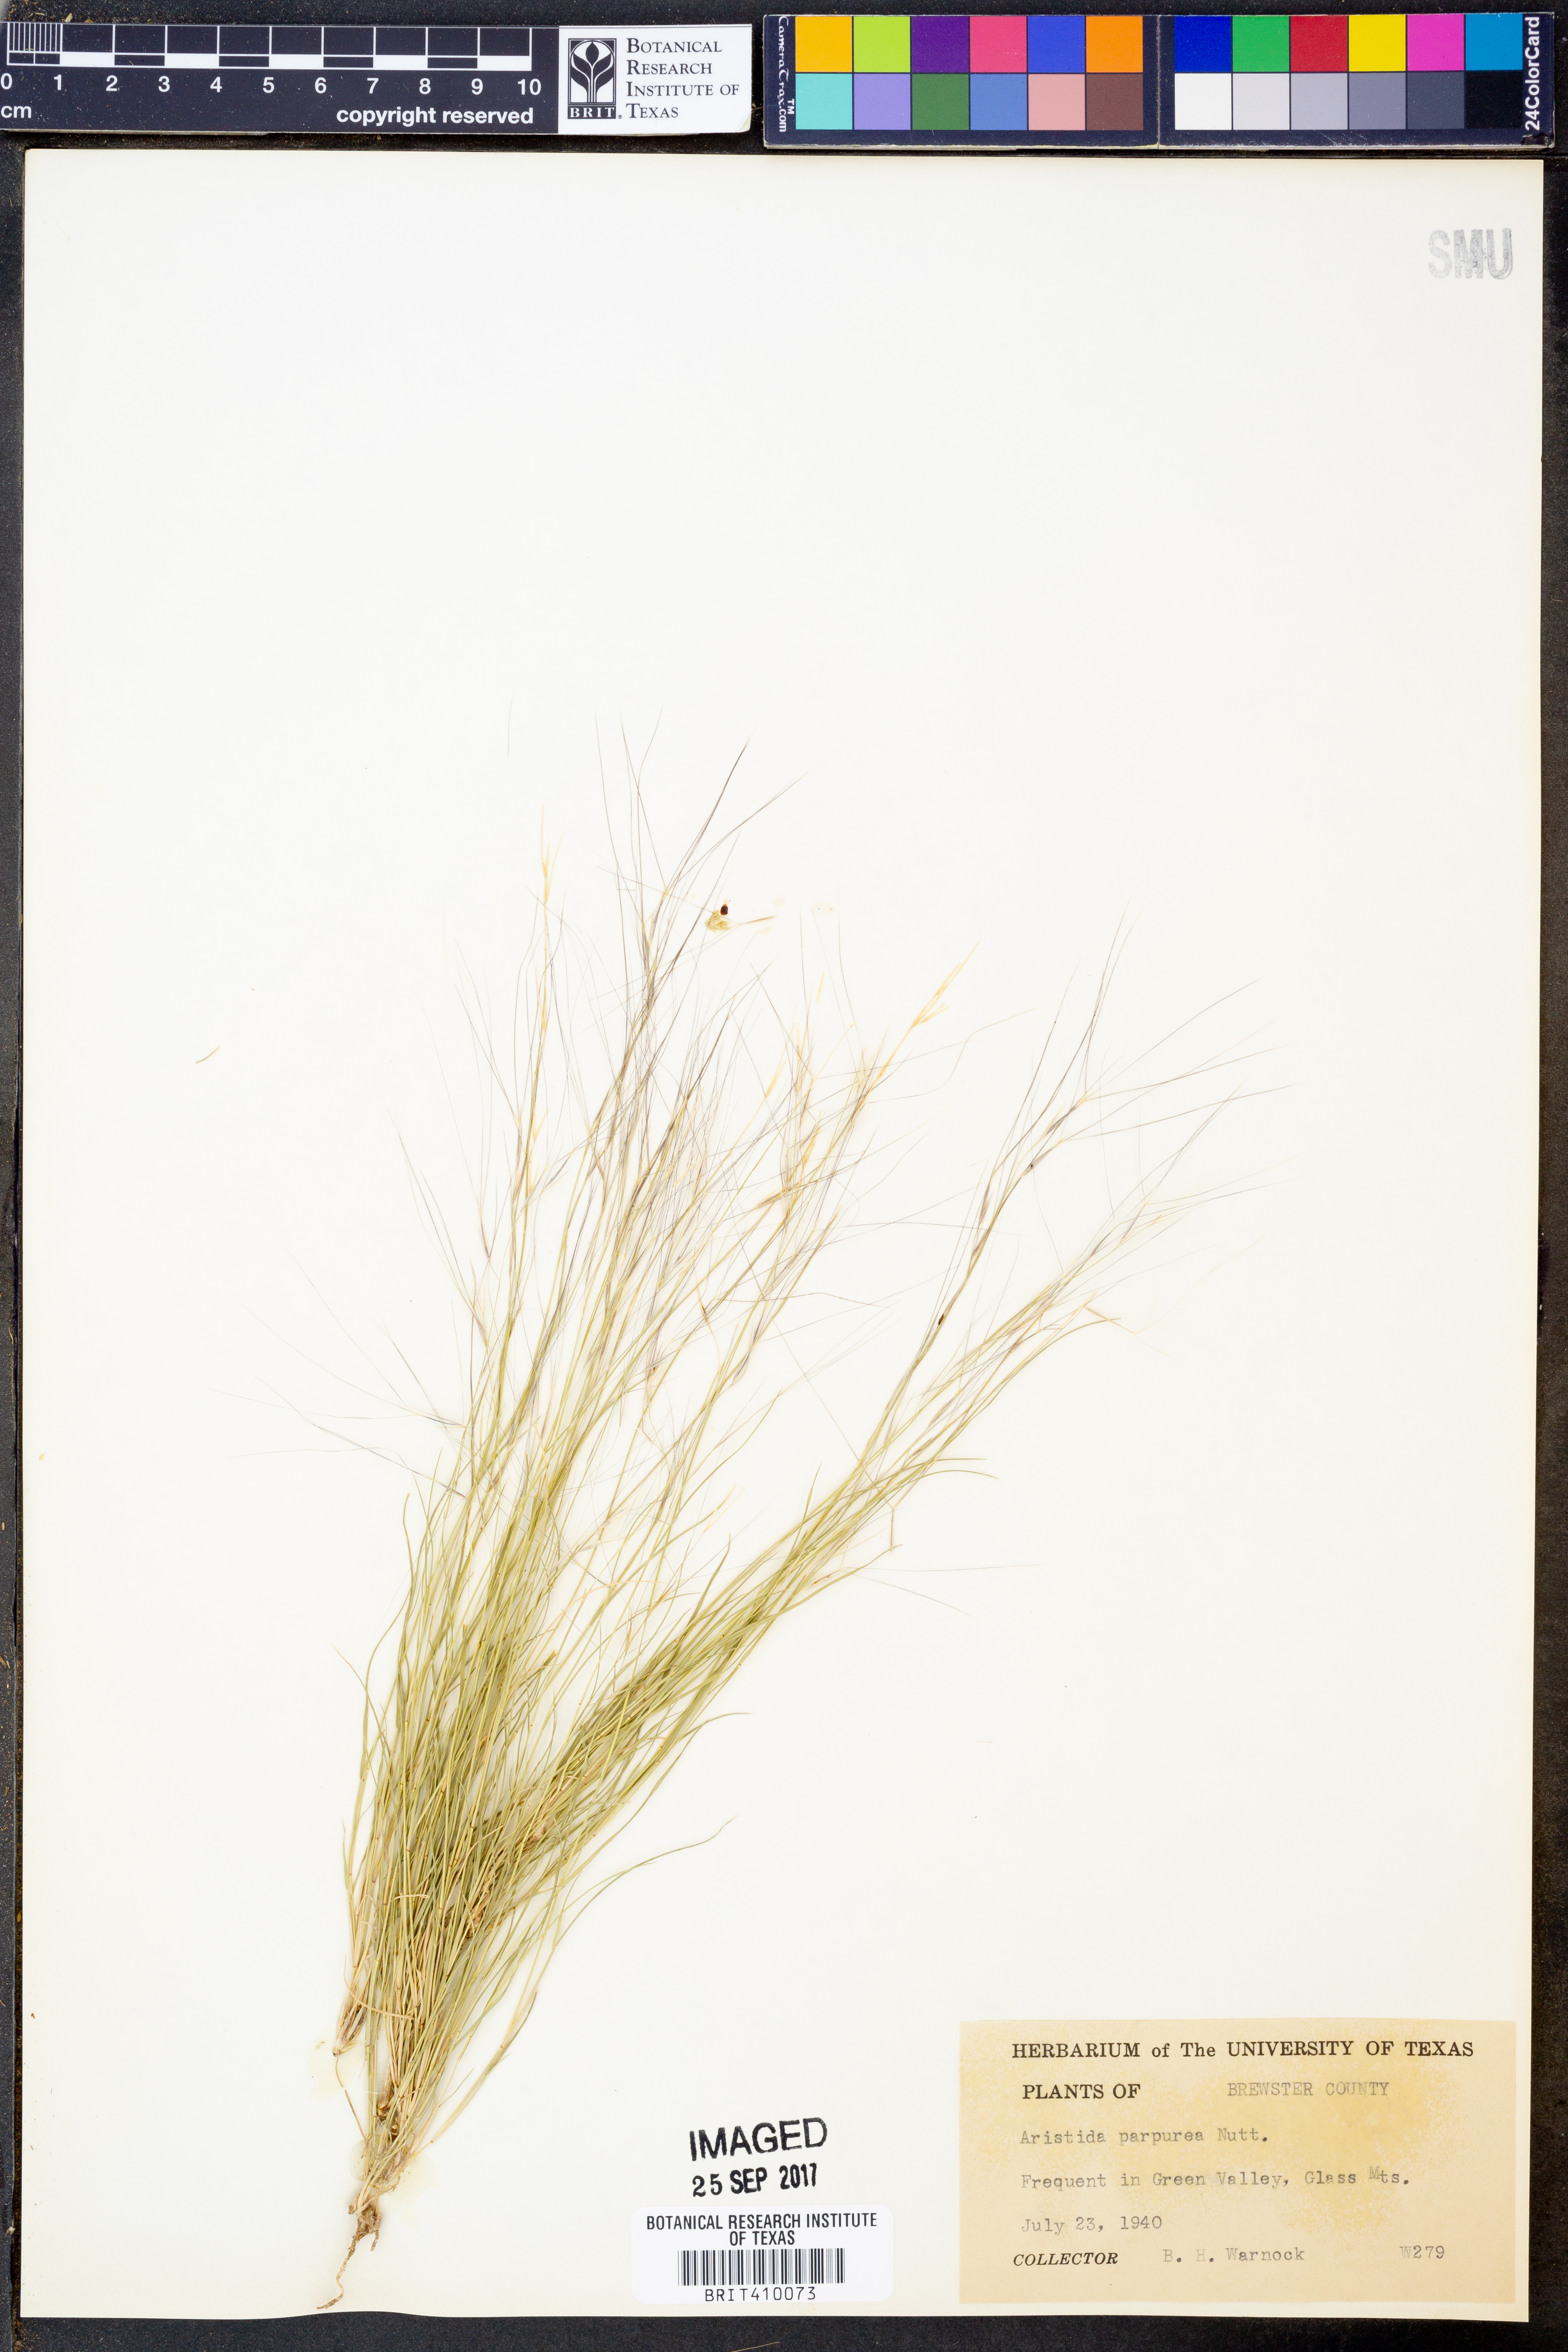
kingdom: Plantae
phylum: Tracheophyta
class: Liliopsida
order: Poales
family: Poaceae
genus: Aristida
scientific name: Aristida purpurea
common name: Purple threeawn
